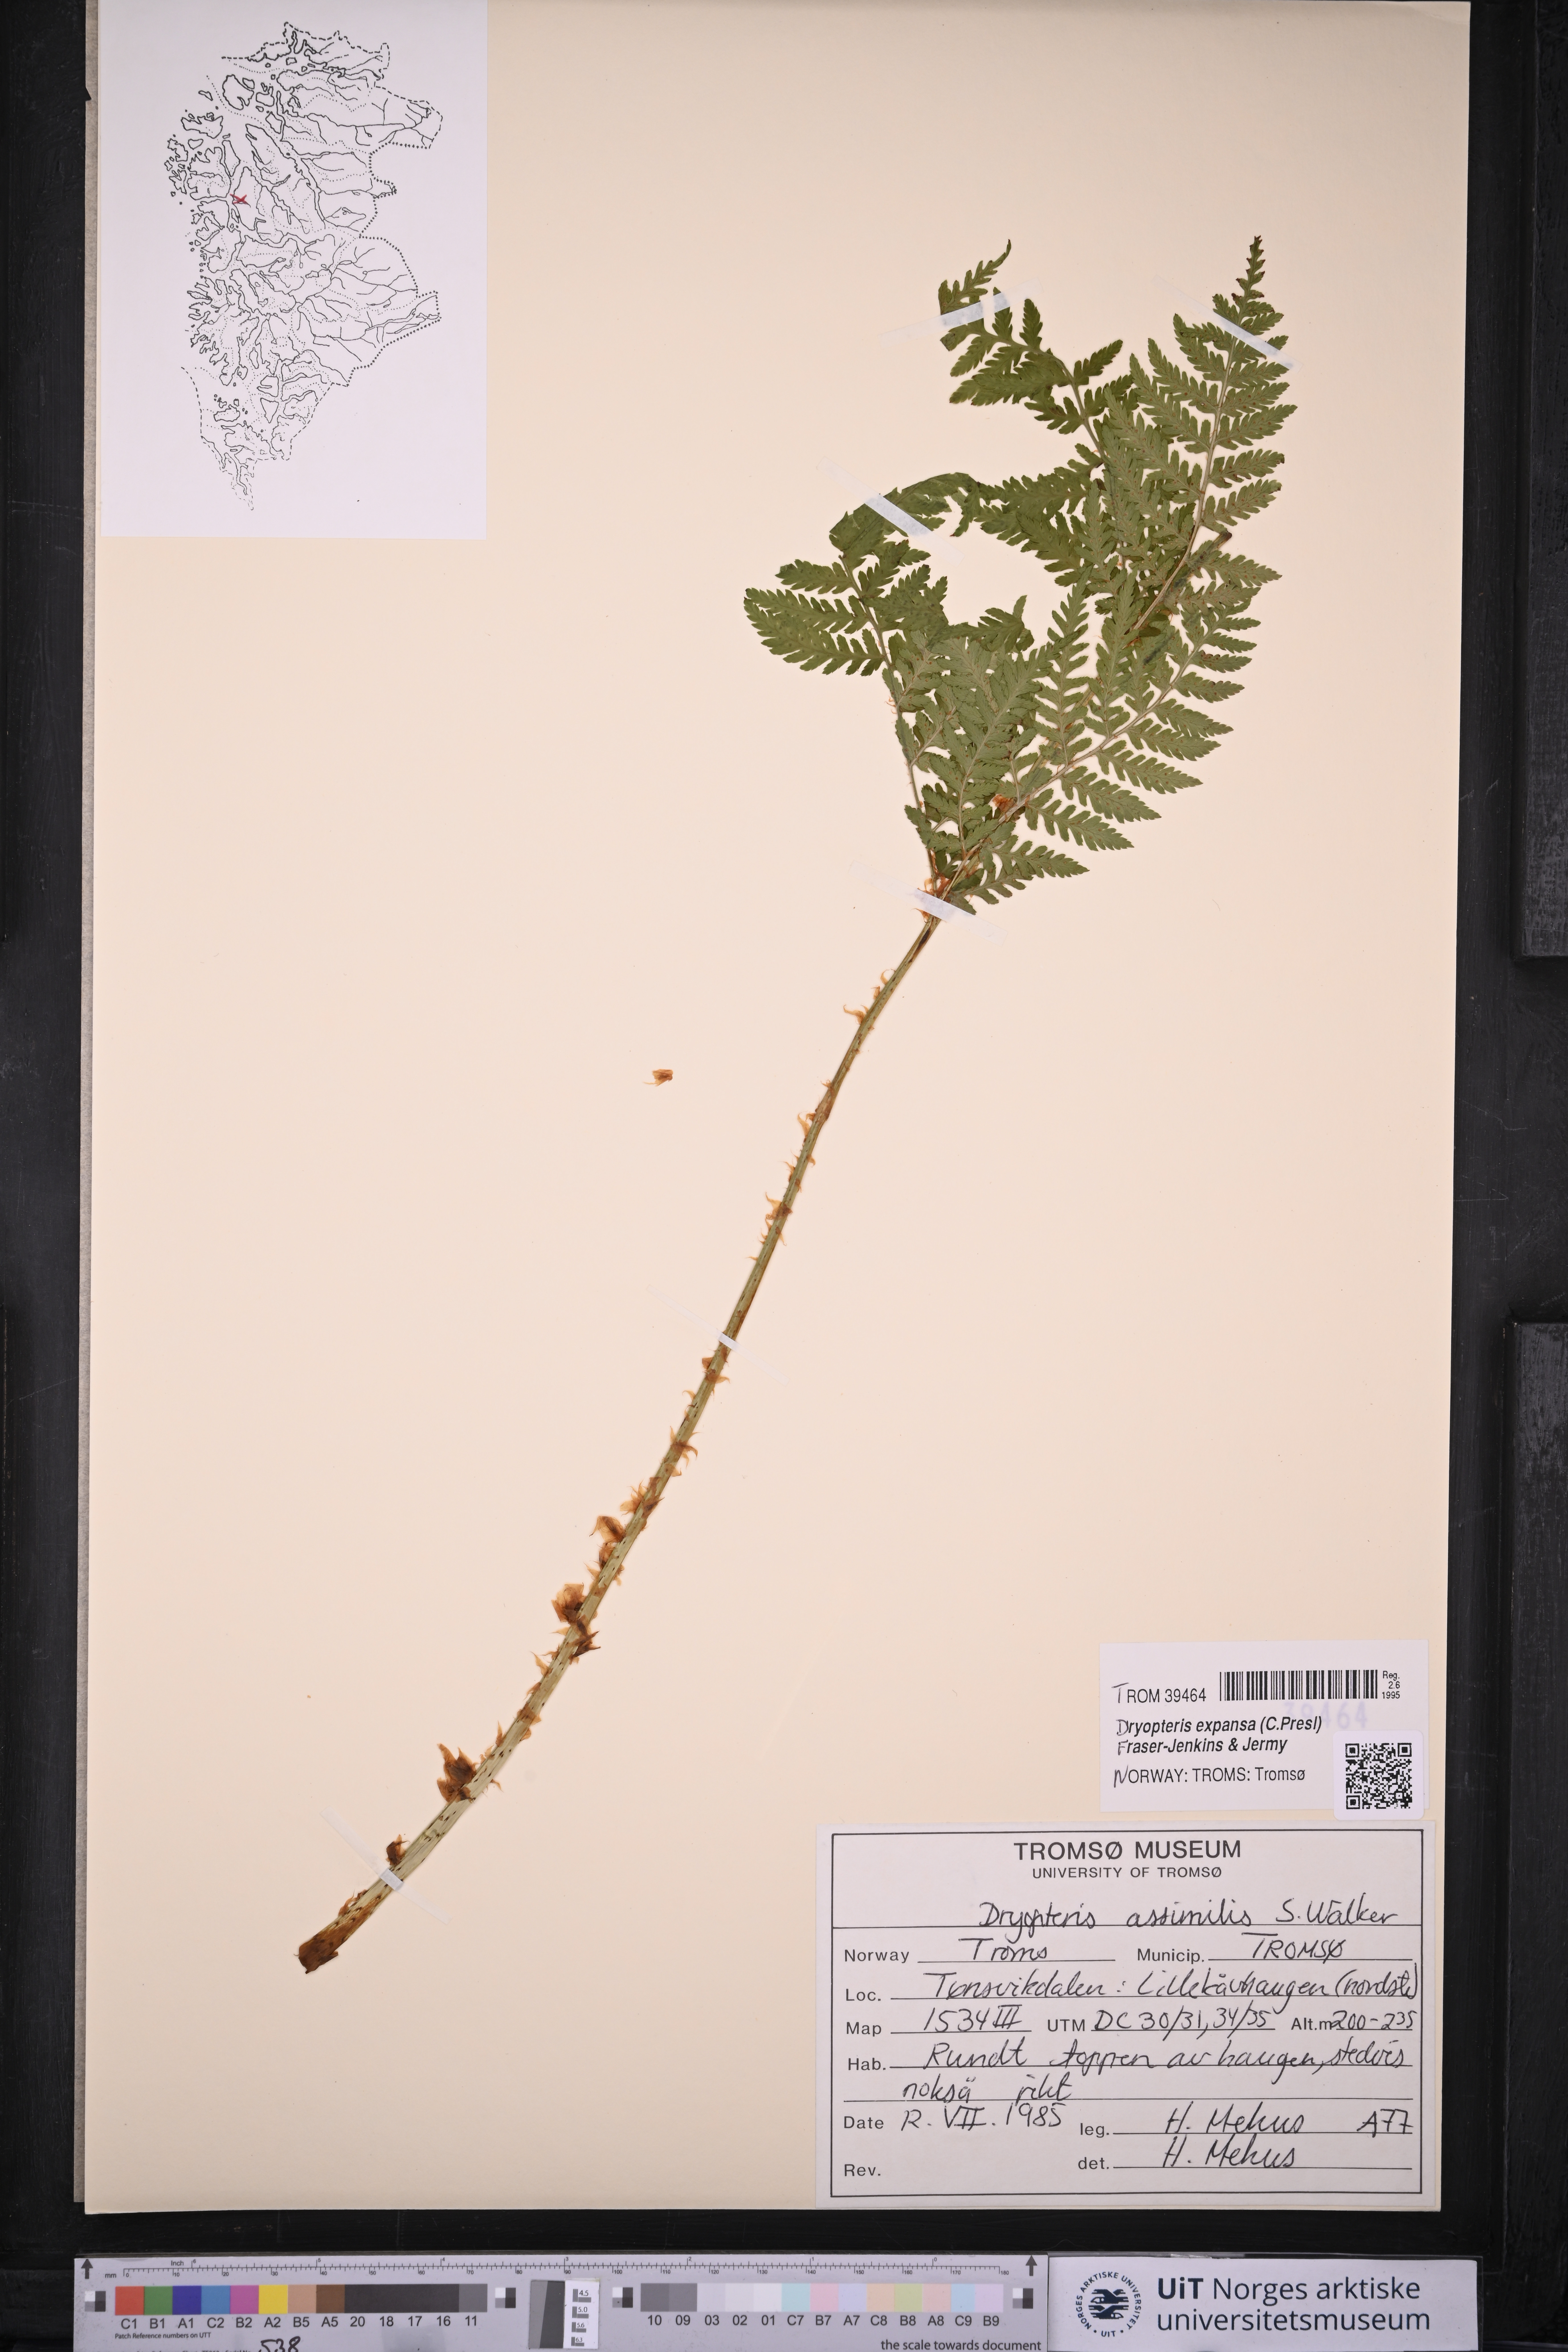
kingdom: Plantae
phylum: Tracheophyta
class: Polypodiopsida
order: Polypodiales
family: Dryopteridaceae
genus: Dryopteris
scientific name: Dryopteris expansa
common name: Northern buckler fern
